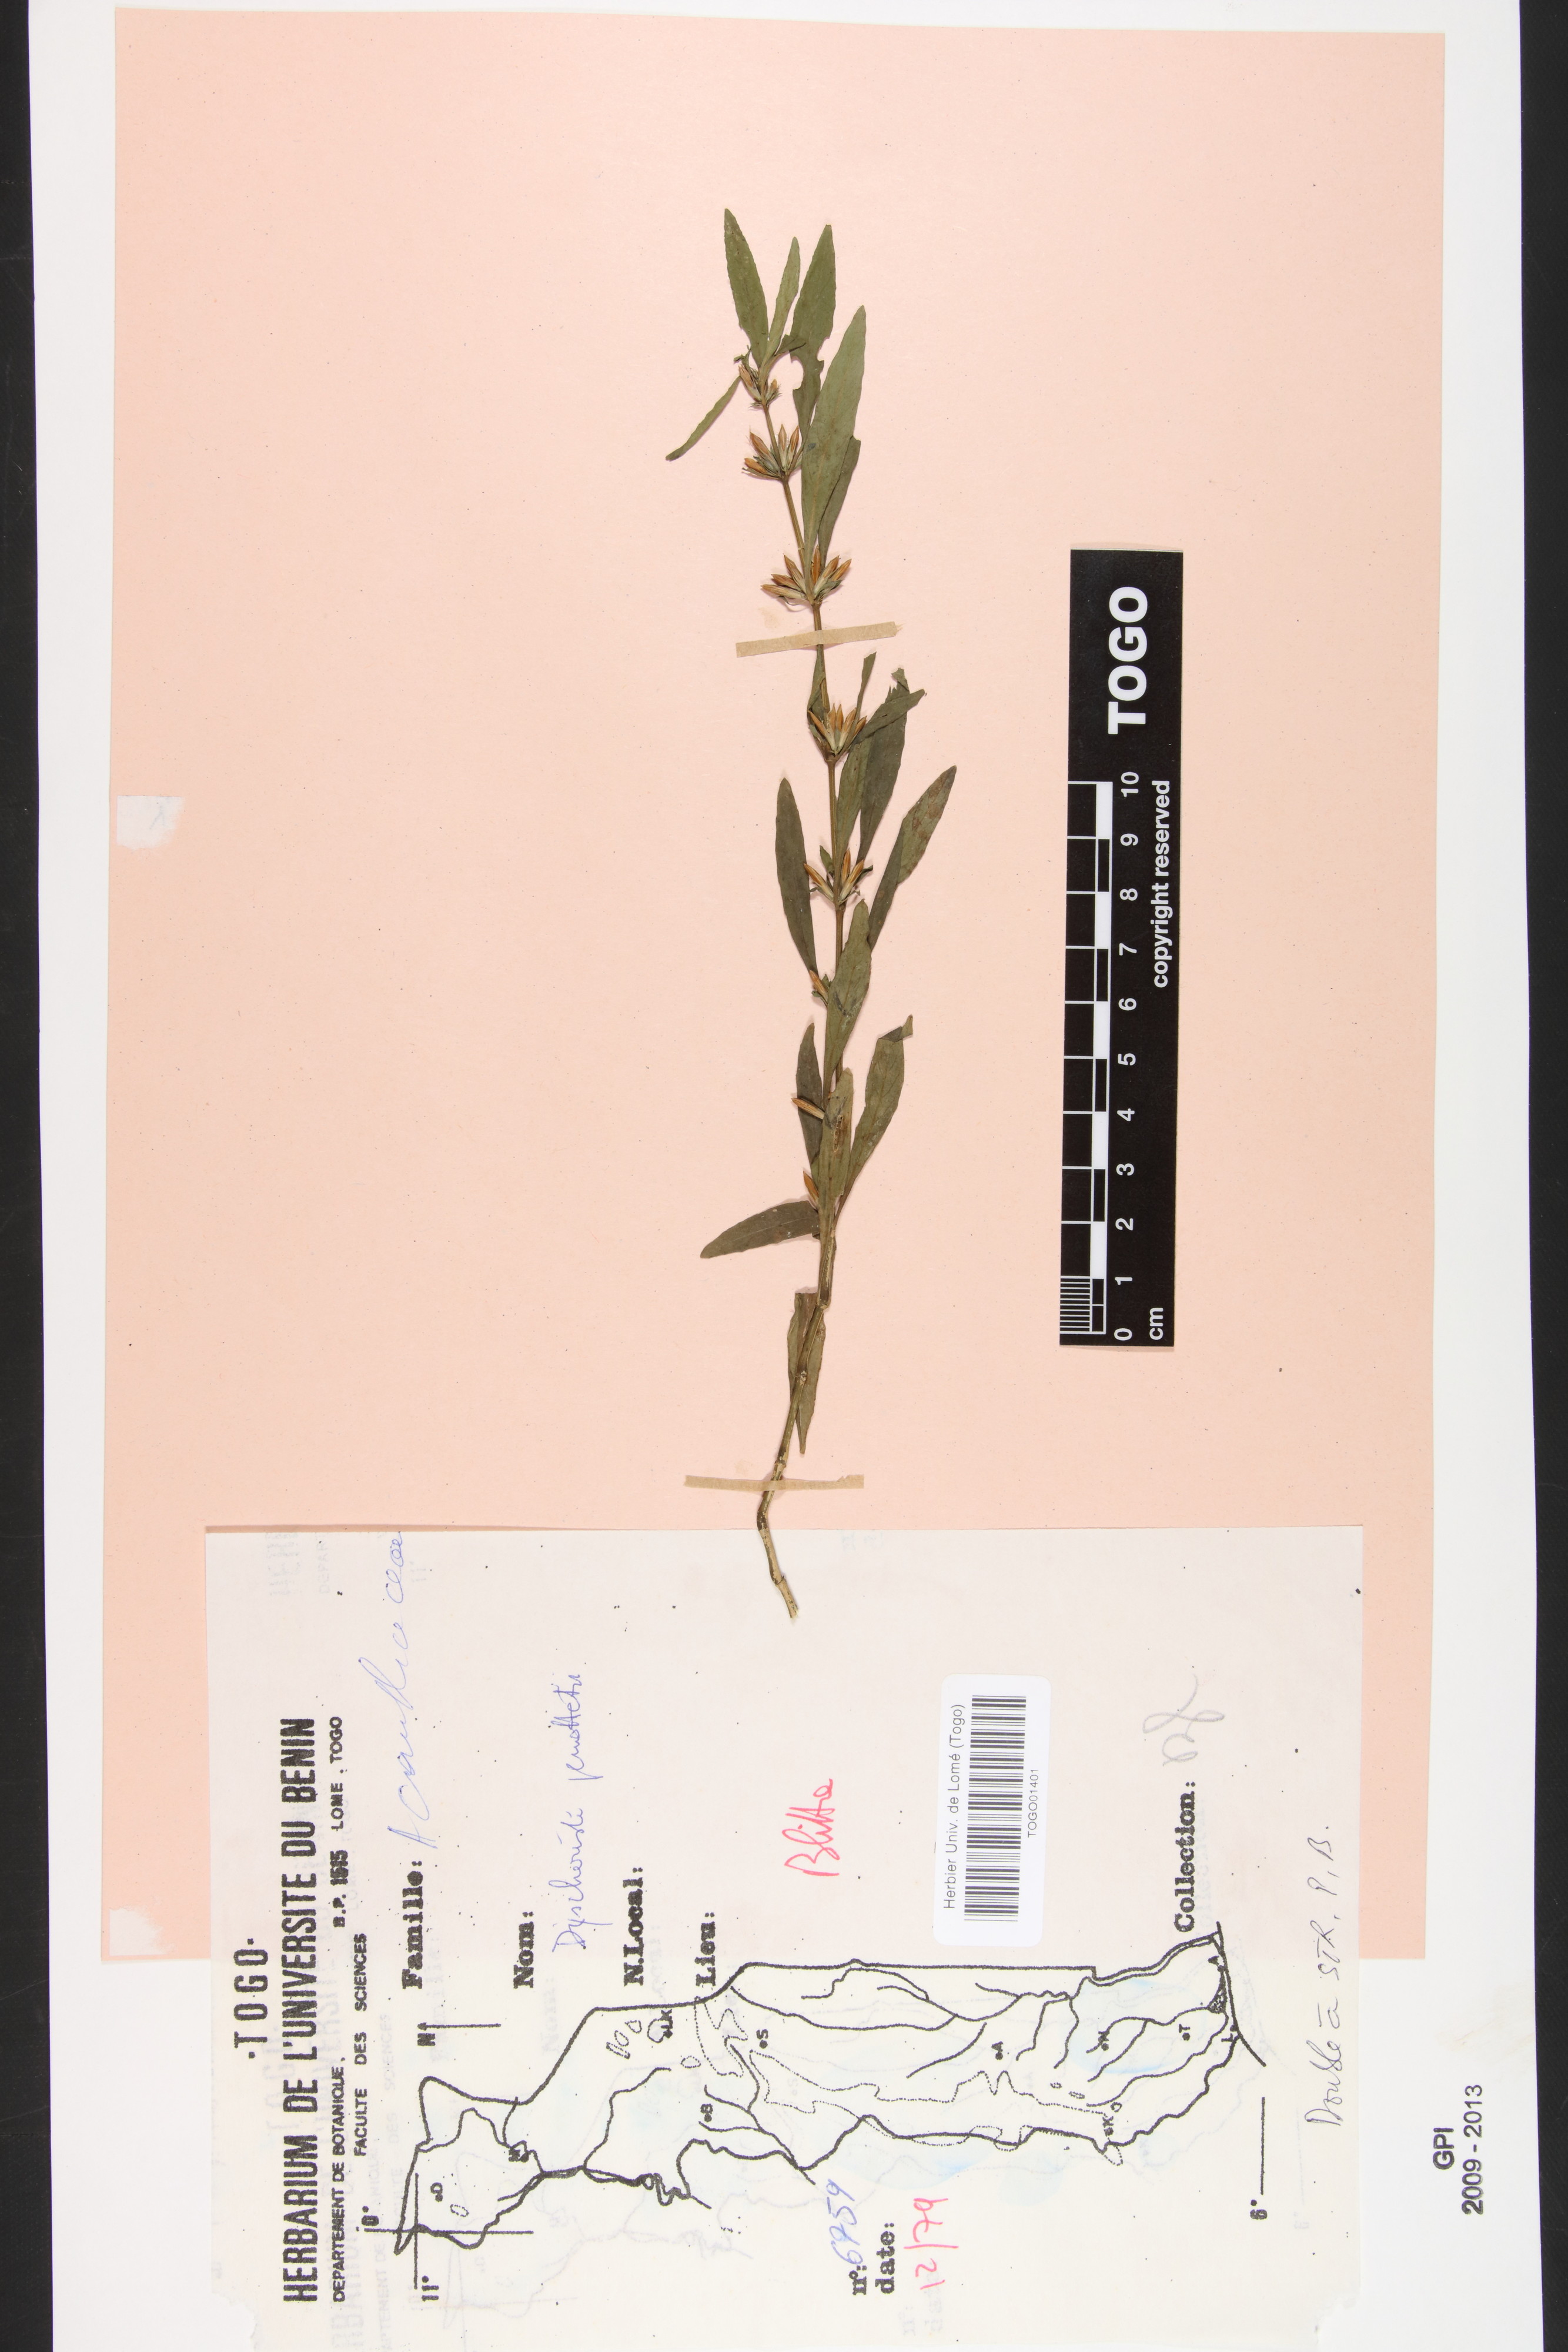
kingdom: Plantae
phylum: Tracheophyta
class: Magnoliopsida
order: Lamiales
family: Acanthaceae
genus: Dyschoriste
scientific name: Dyschoriste nagchana
